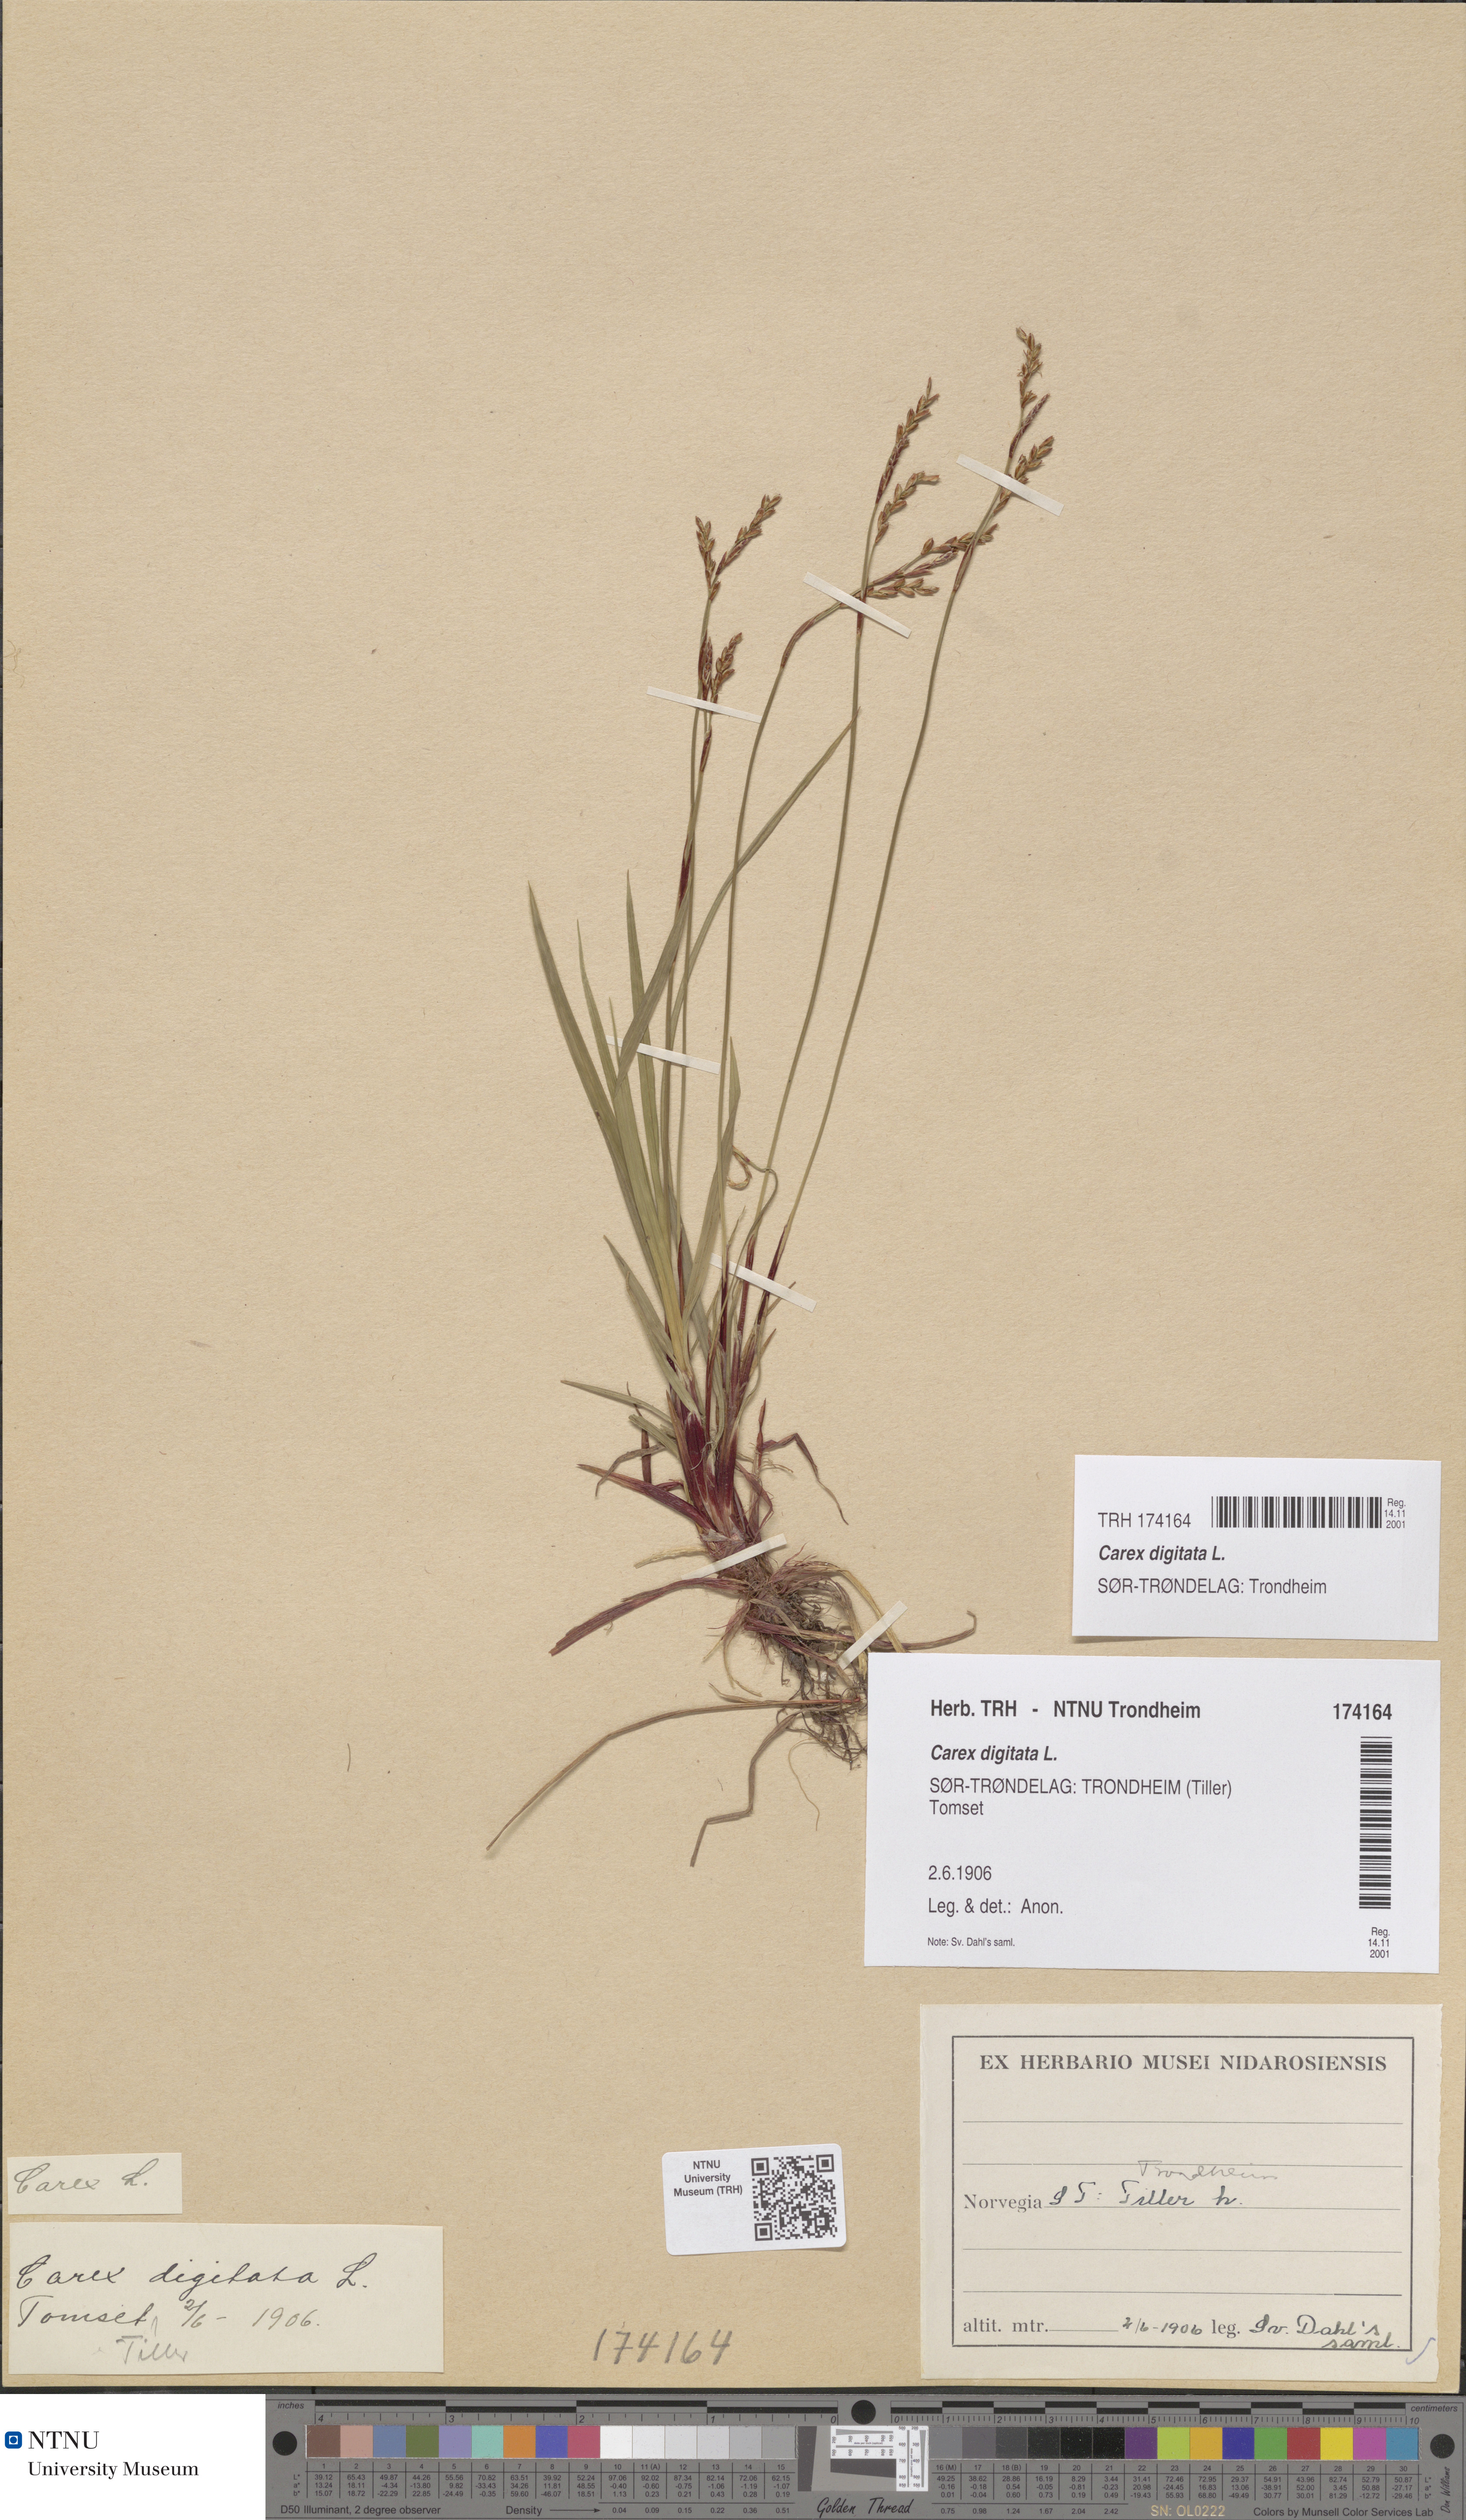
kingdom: Plantae
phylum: Tracheophyta
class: Liliopsida
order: Poales
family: Cyperaceae
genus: Carex
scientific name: Carex digitata
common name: Fingered sedge
